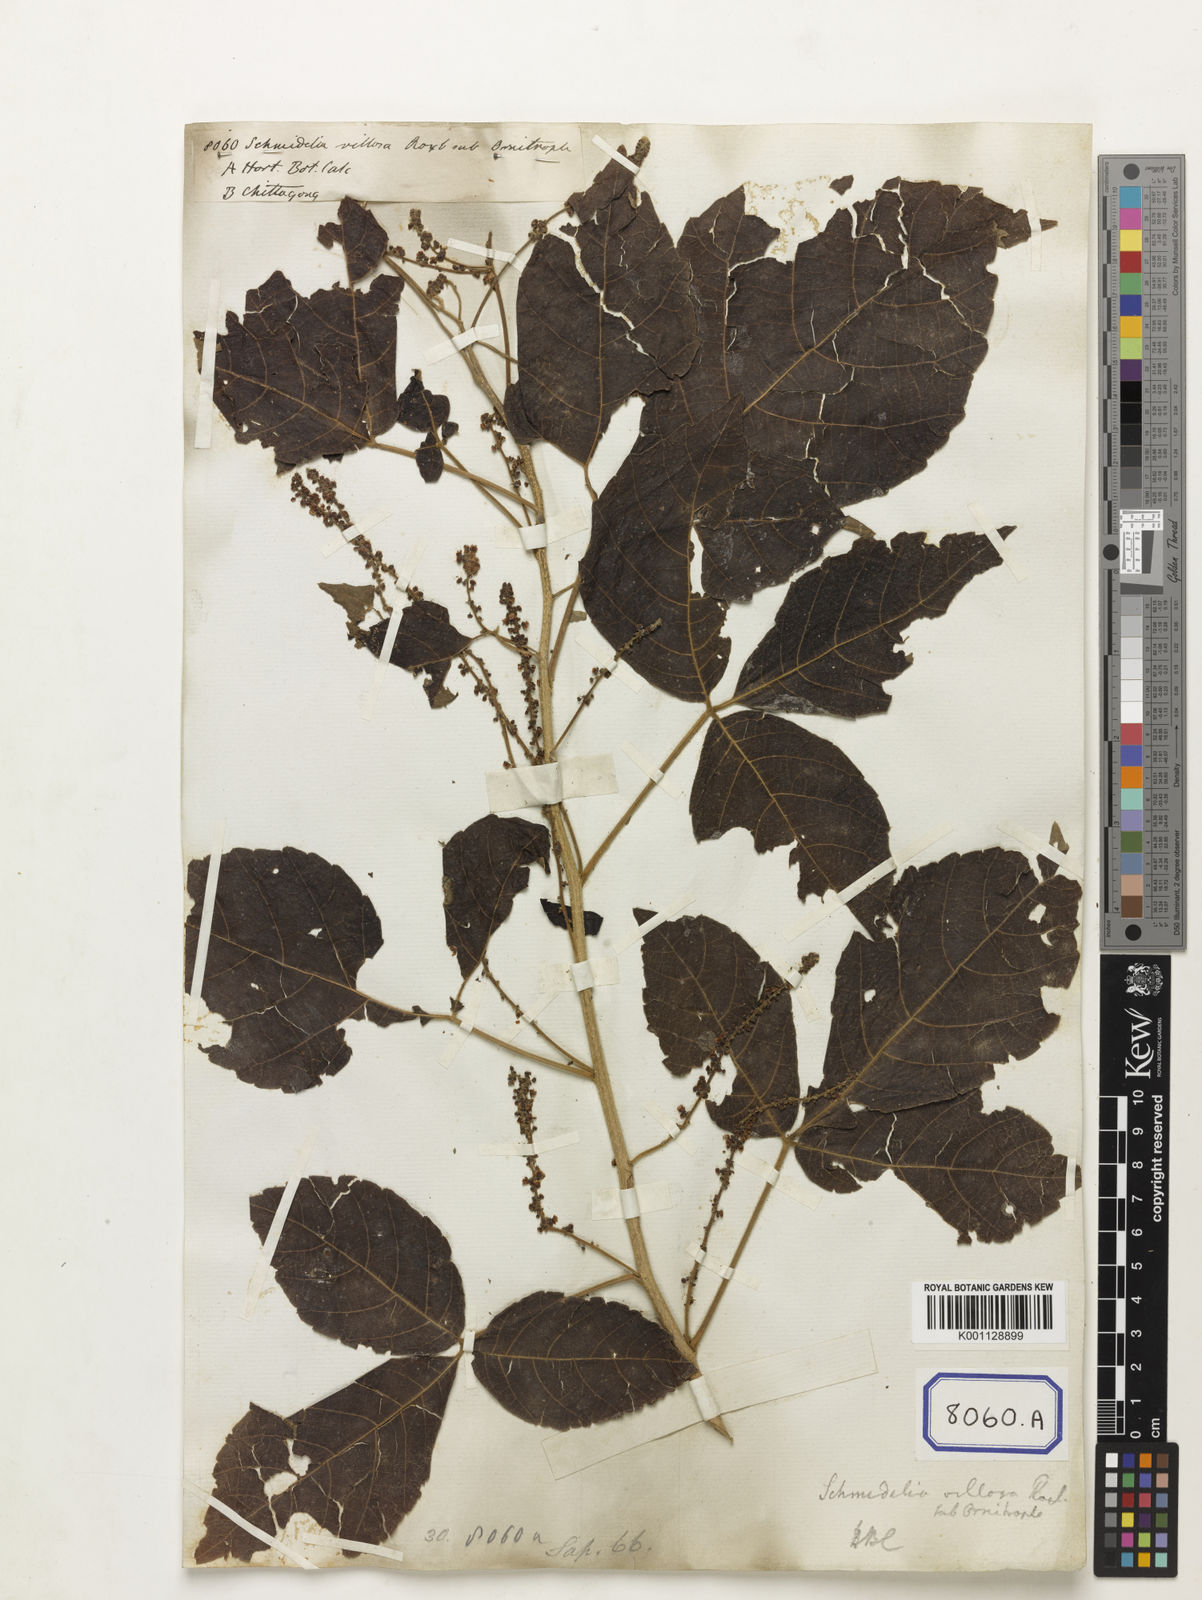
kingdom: Plantae
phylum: Tracheophyta
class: Magnoliopsida
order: Sapindales
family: Sapindaceae
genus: Allophylus
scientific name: Allophylus villosus
